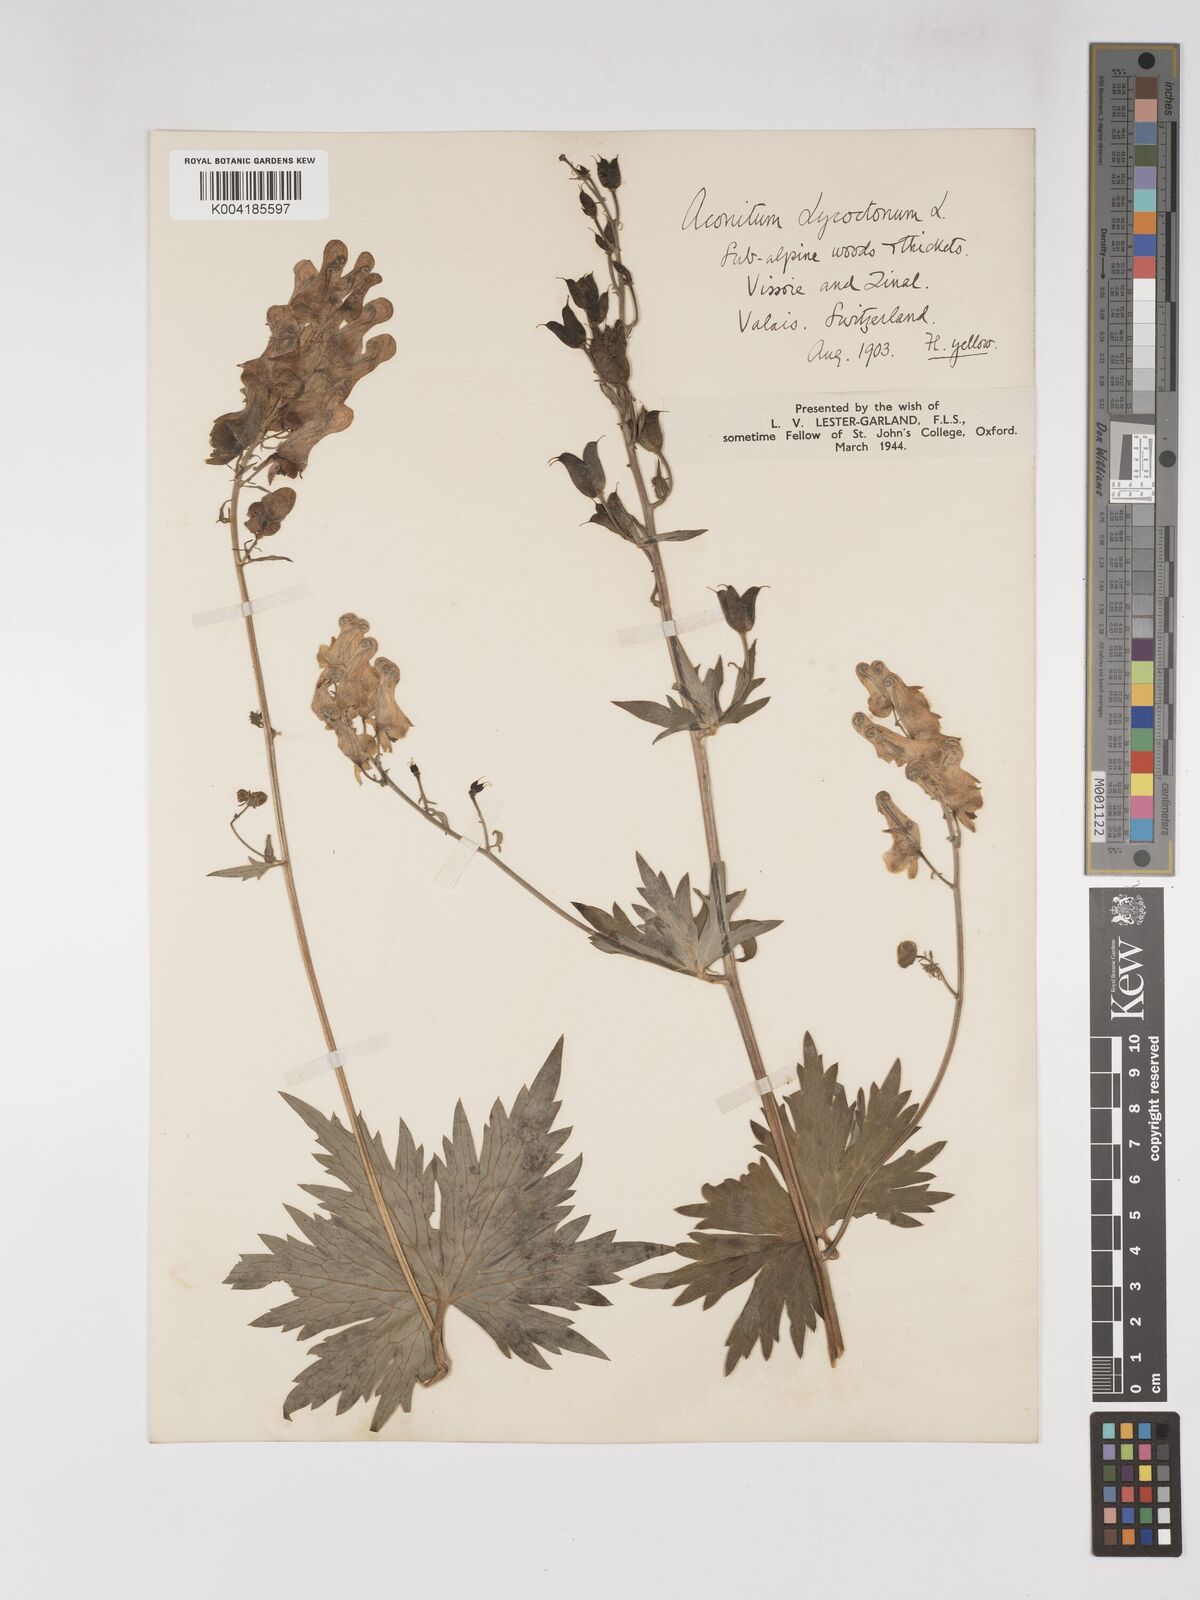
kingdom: Plantae
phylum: Tracheophyta
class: Magnoliopsida
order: Ranunculales
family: Ranunculaceae
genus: Aconitum
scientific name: Aconitum lycoctonum
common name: Wolf's-bane
